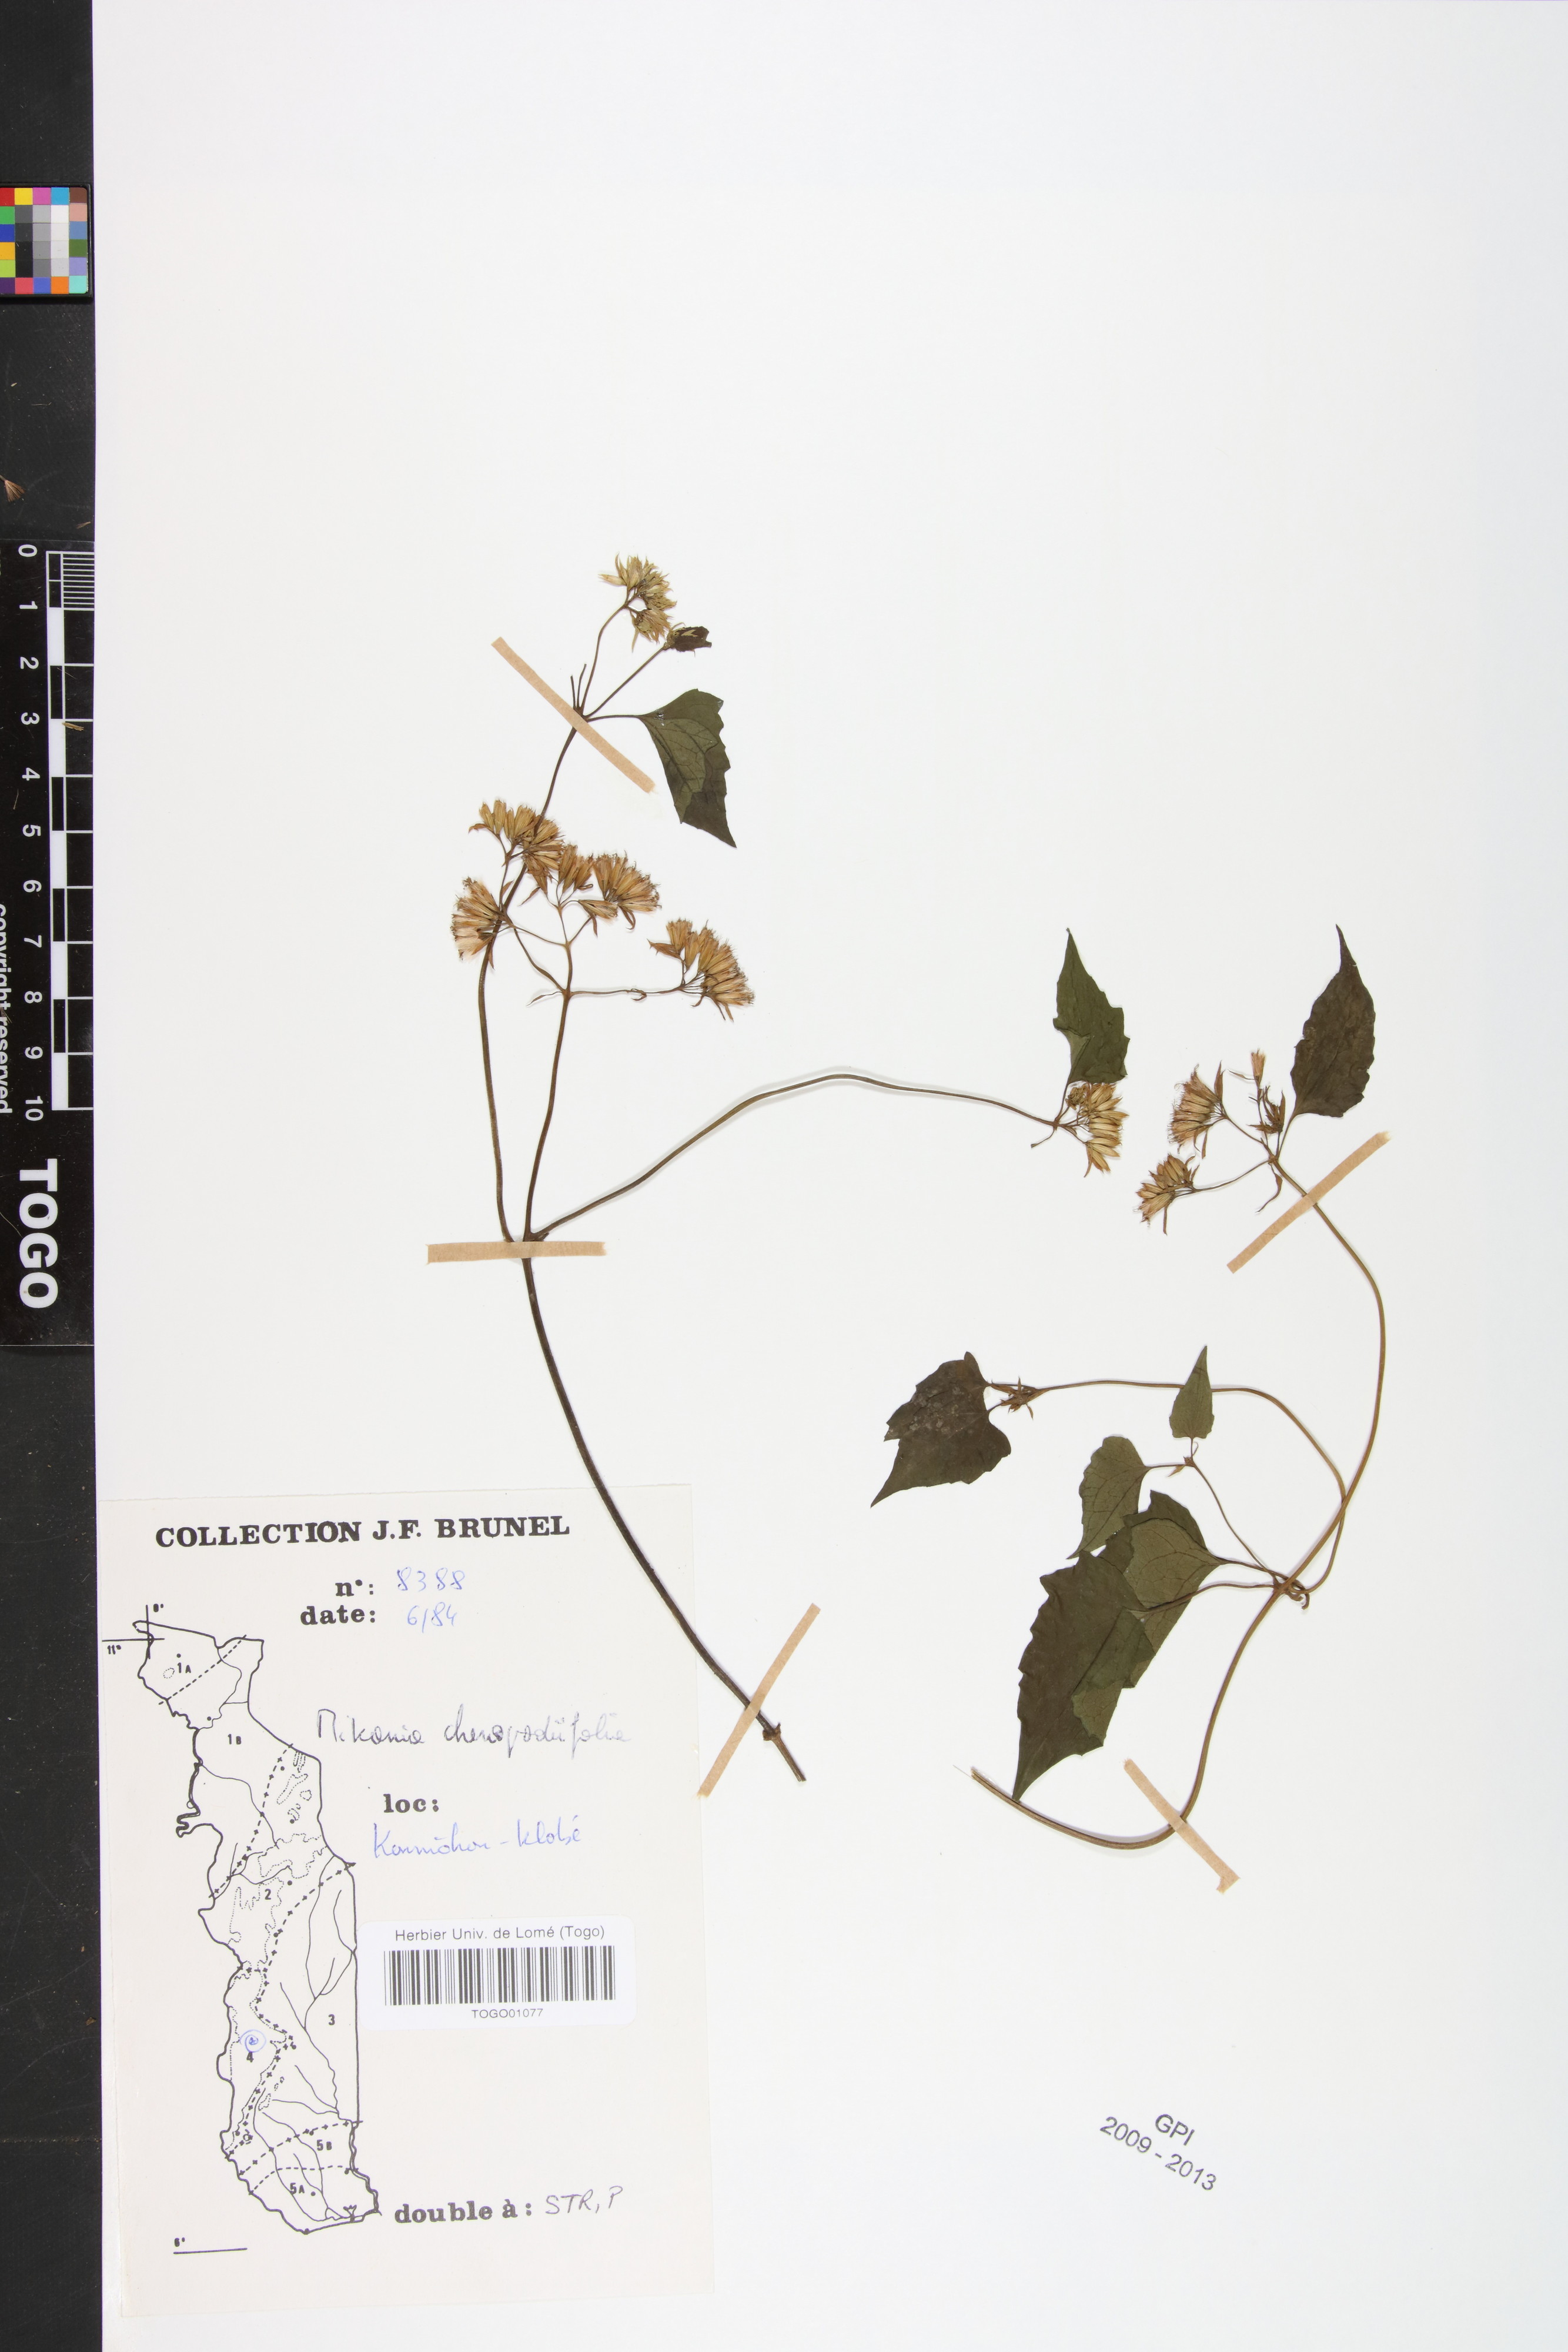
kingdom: Plantae
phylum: Tracheophyta
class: Magnoliopsida
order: Asterales
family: Asteraceae
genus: Mikania
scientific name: Mikania chenopodifolia
